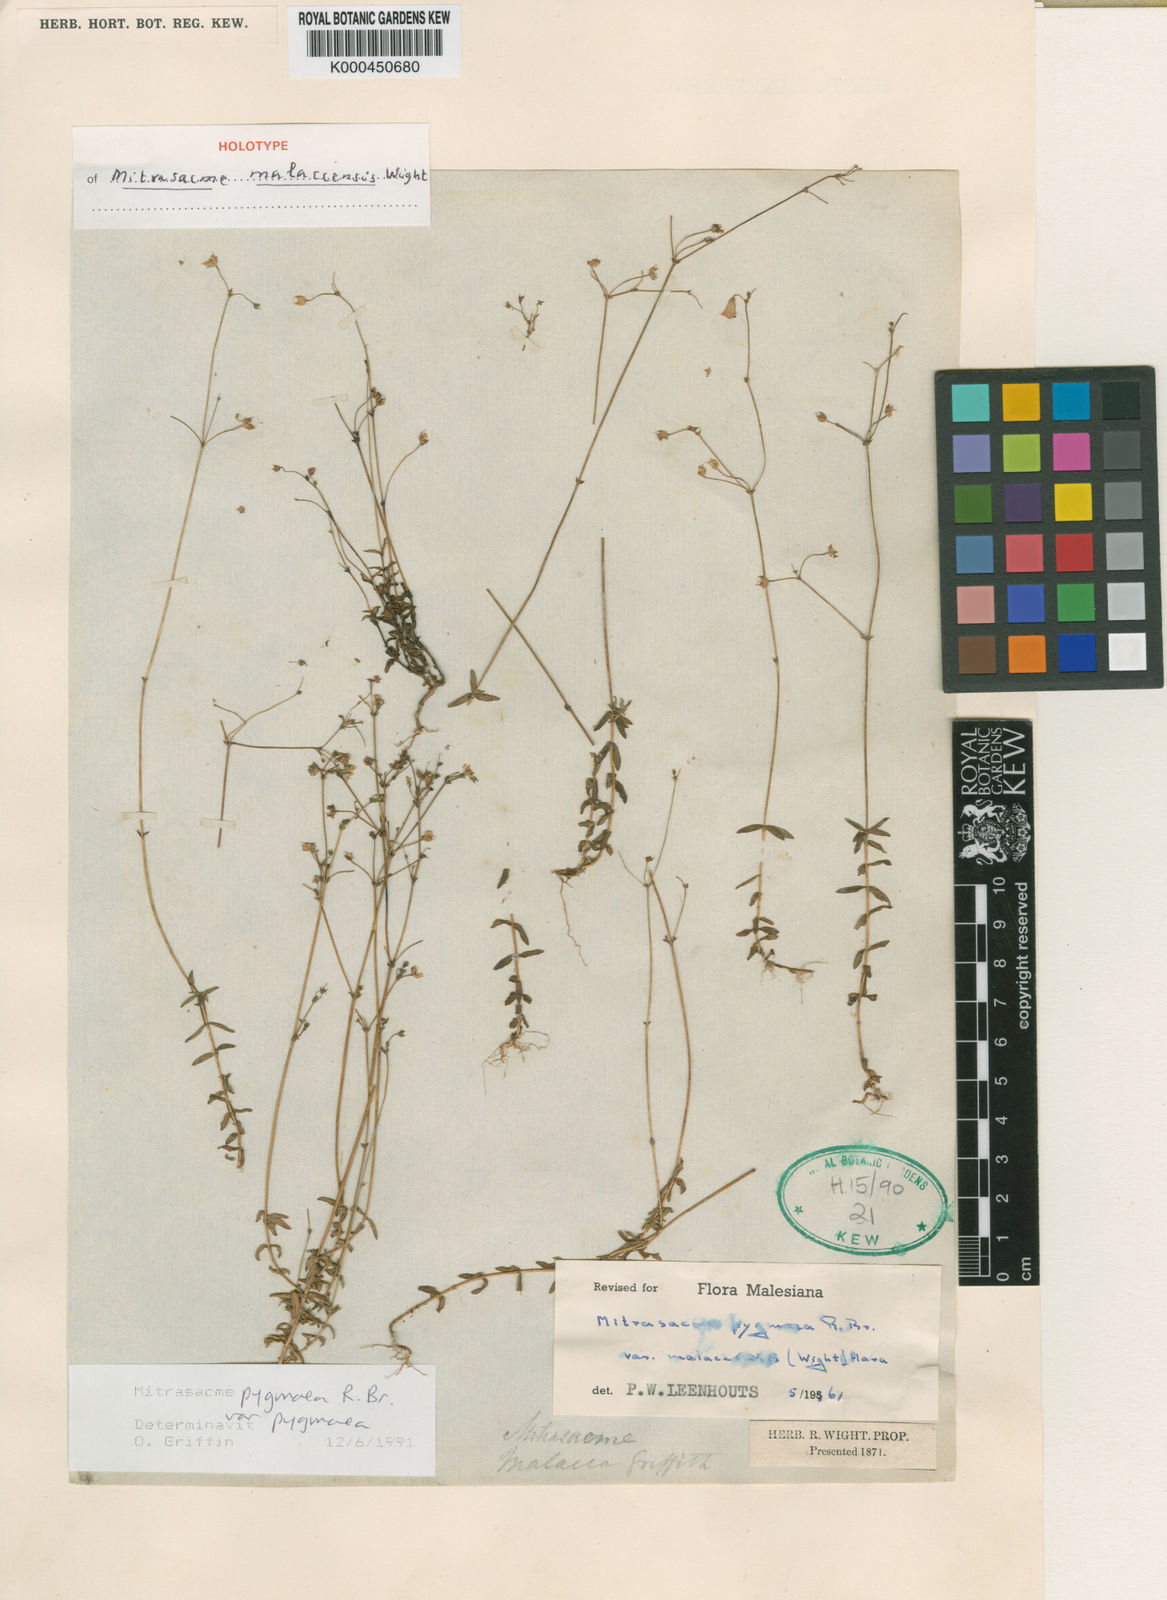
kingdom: Plantae
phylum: Tracheophyta
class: Magnoliopsida
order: Gentianales
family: Loganiaceae
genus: Mitrasacme
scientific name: Mitrasacme pygmaea
